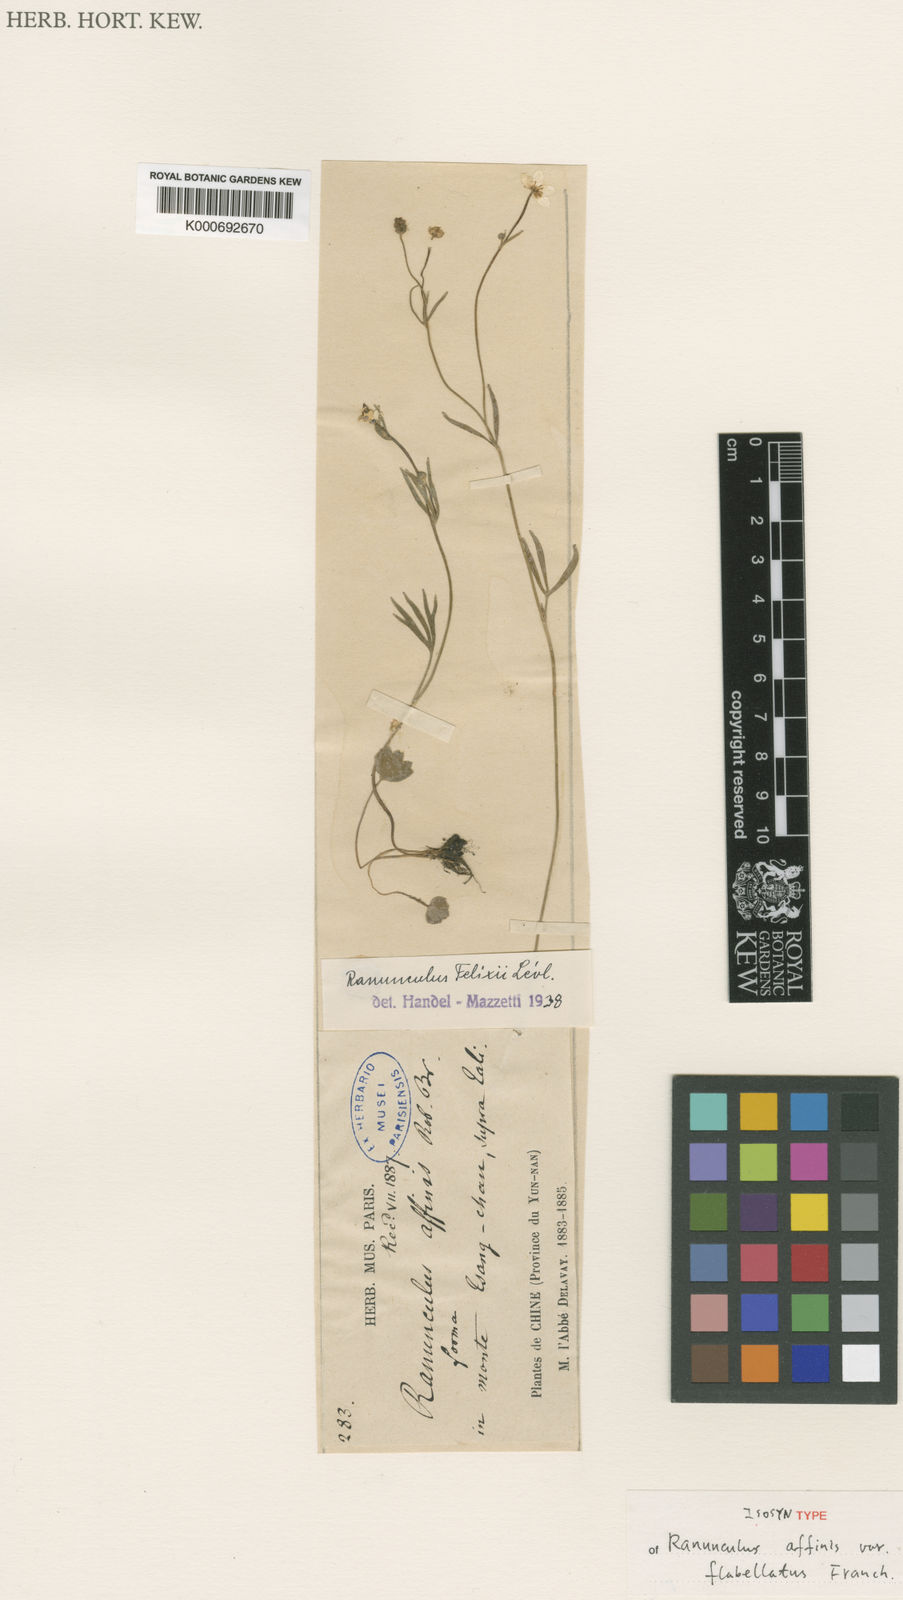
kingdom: Plantae
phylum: Tracheophyta
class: Magnoliopsida
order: Ranunculales
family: Ranunculaceae
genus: Ranunculus
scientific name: Ranunculus
